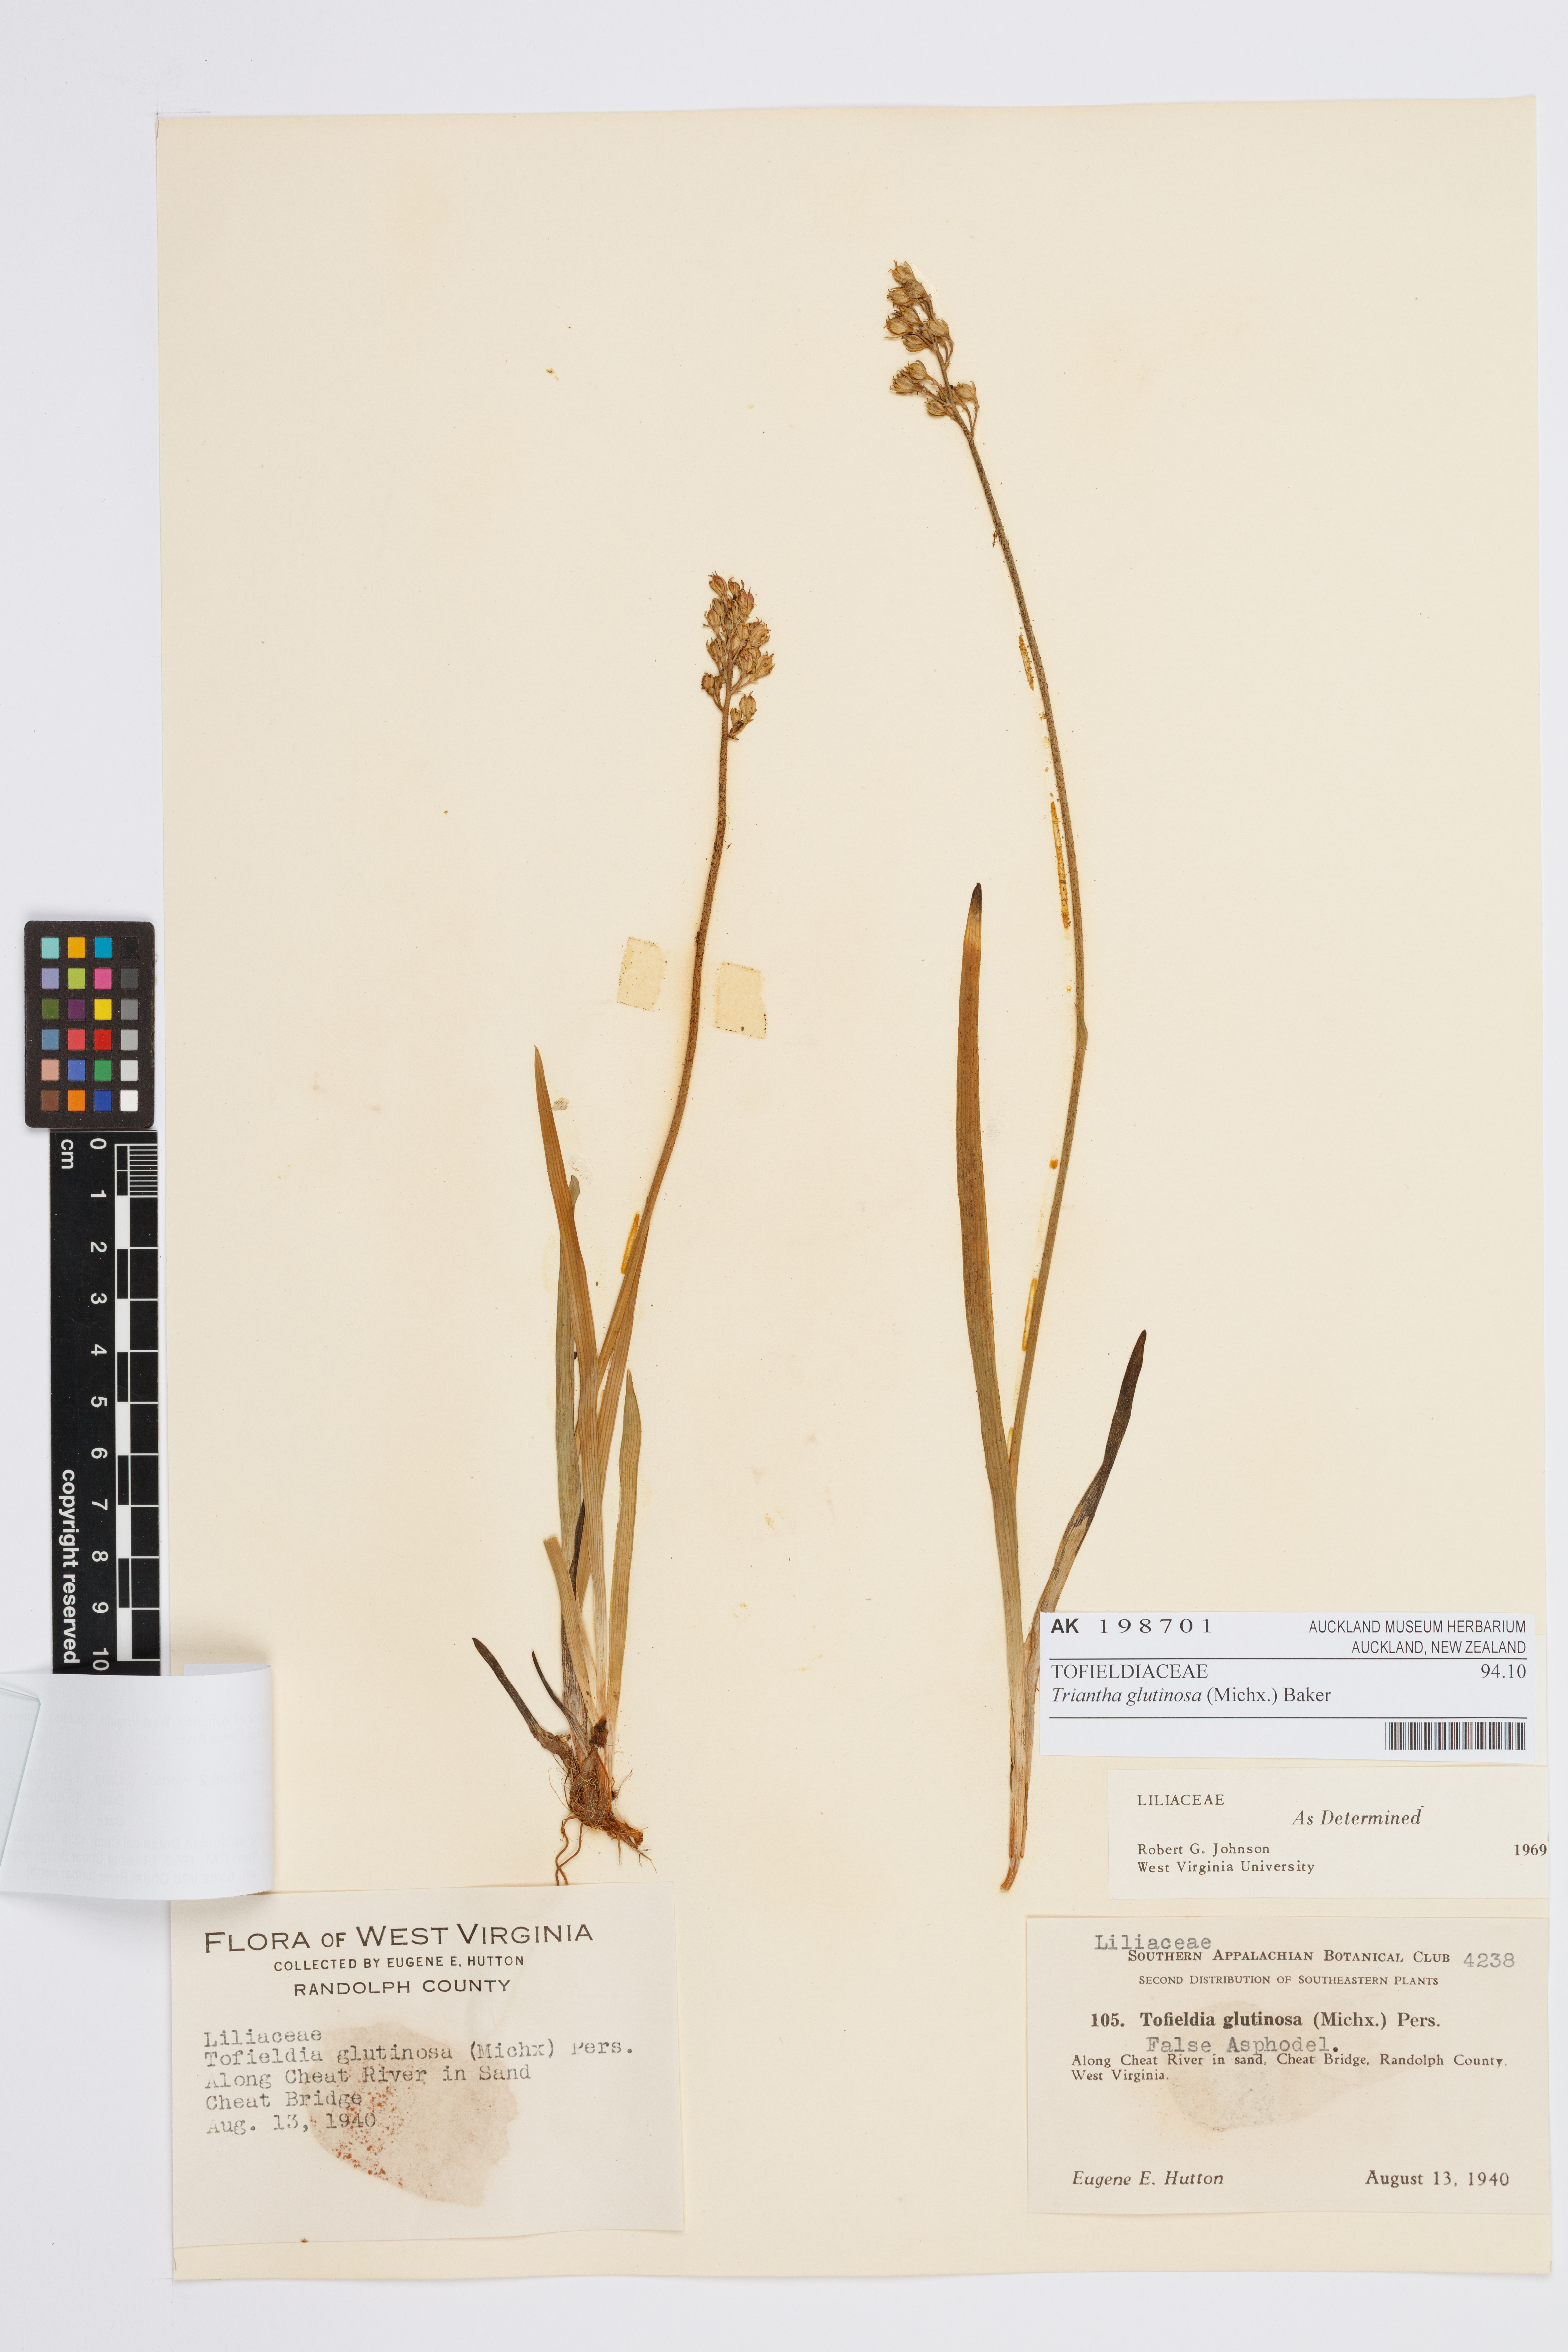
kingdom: Plantae
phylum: Tracheophyta
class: Liliopsida
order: Alismatales
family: Tofieldiaceae
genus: Triantha
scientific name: Triantha glutinosa
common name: Glutinous tofieldia
